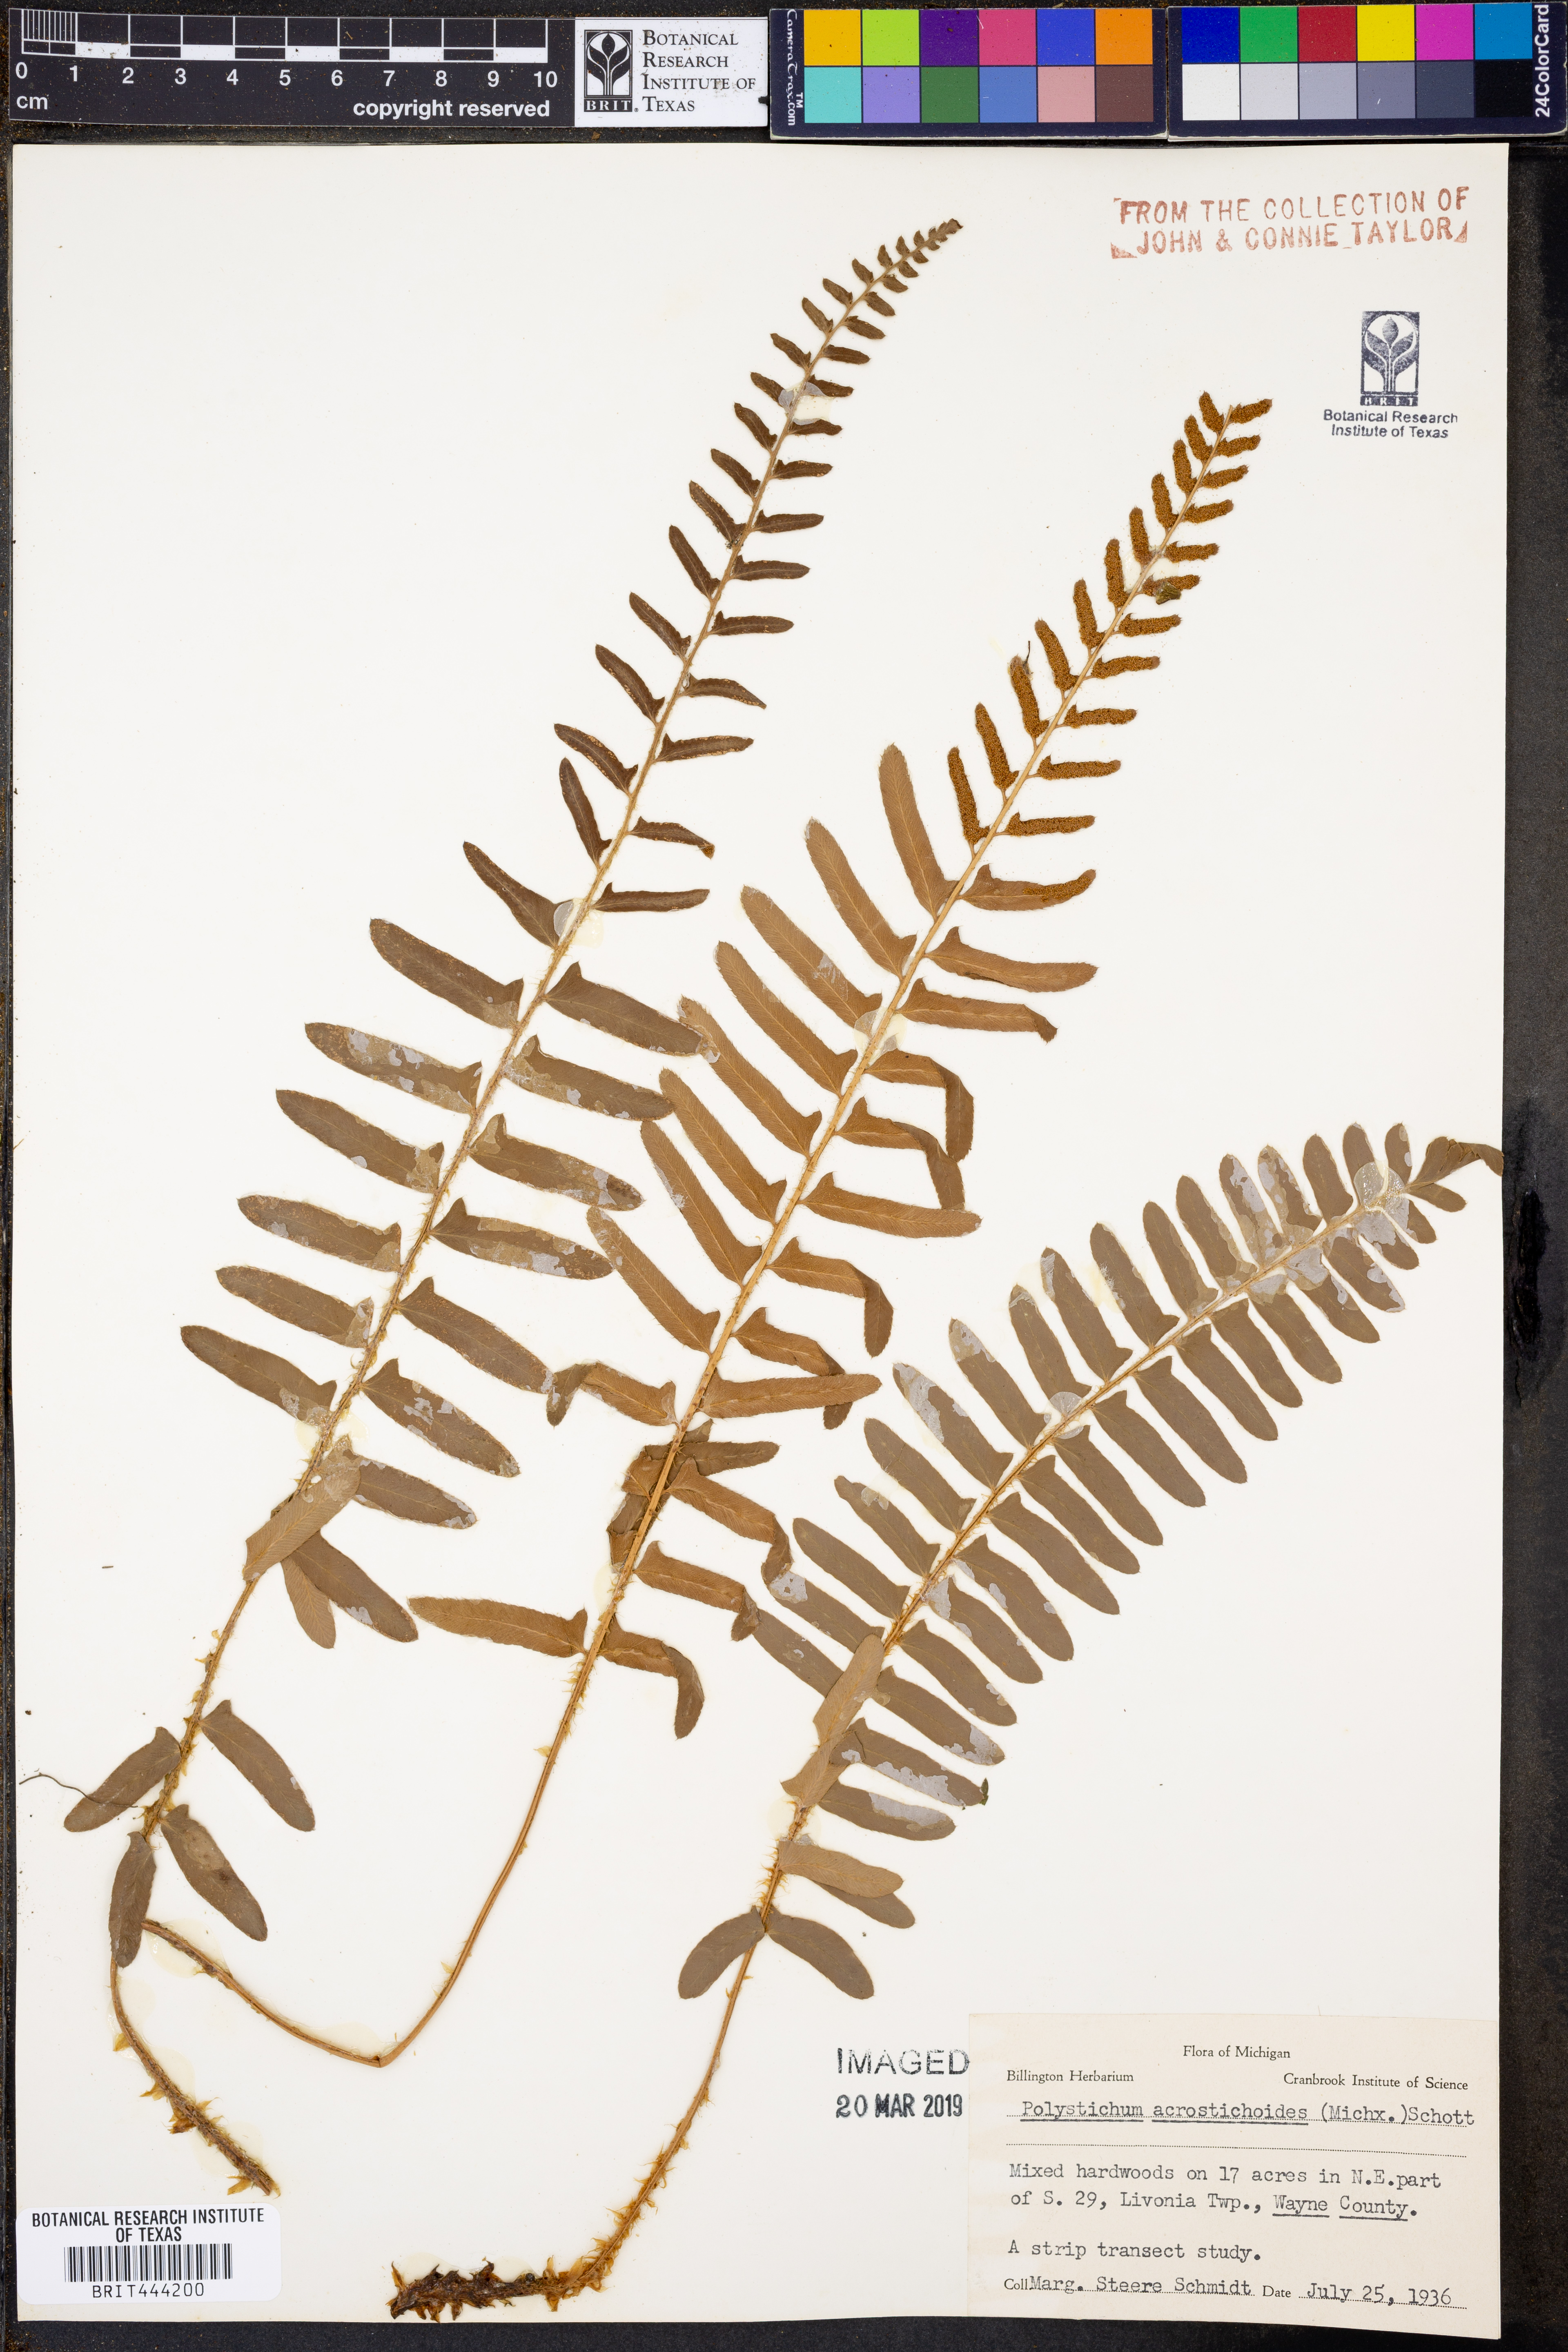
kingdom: Plantae
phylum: Tracheophyta
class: Polypodiopsida
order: Polypodiales
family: Dryopteridaceae
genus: Polystichum
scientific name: Polystichum acrostichoides
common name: Christmas fern
